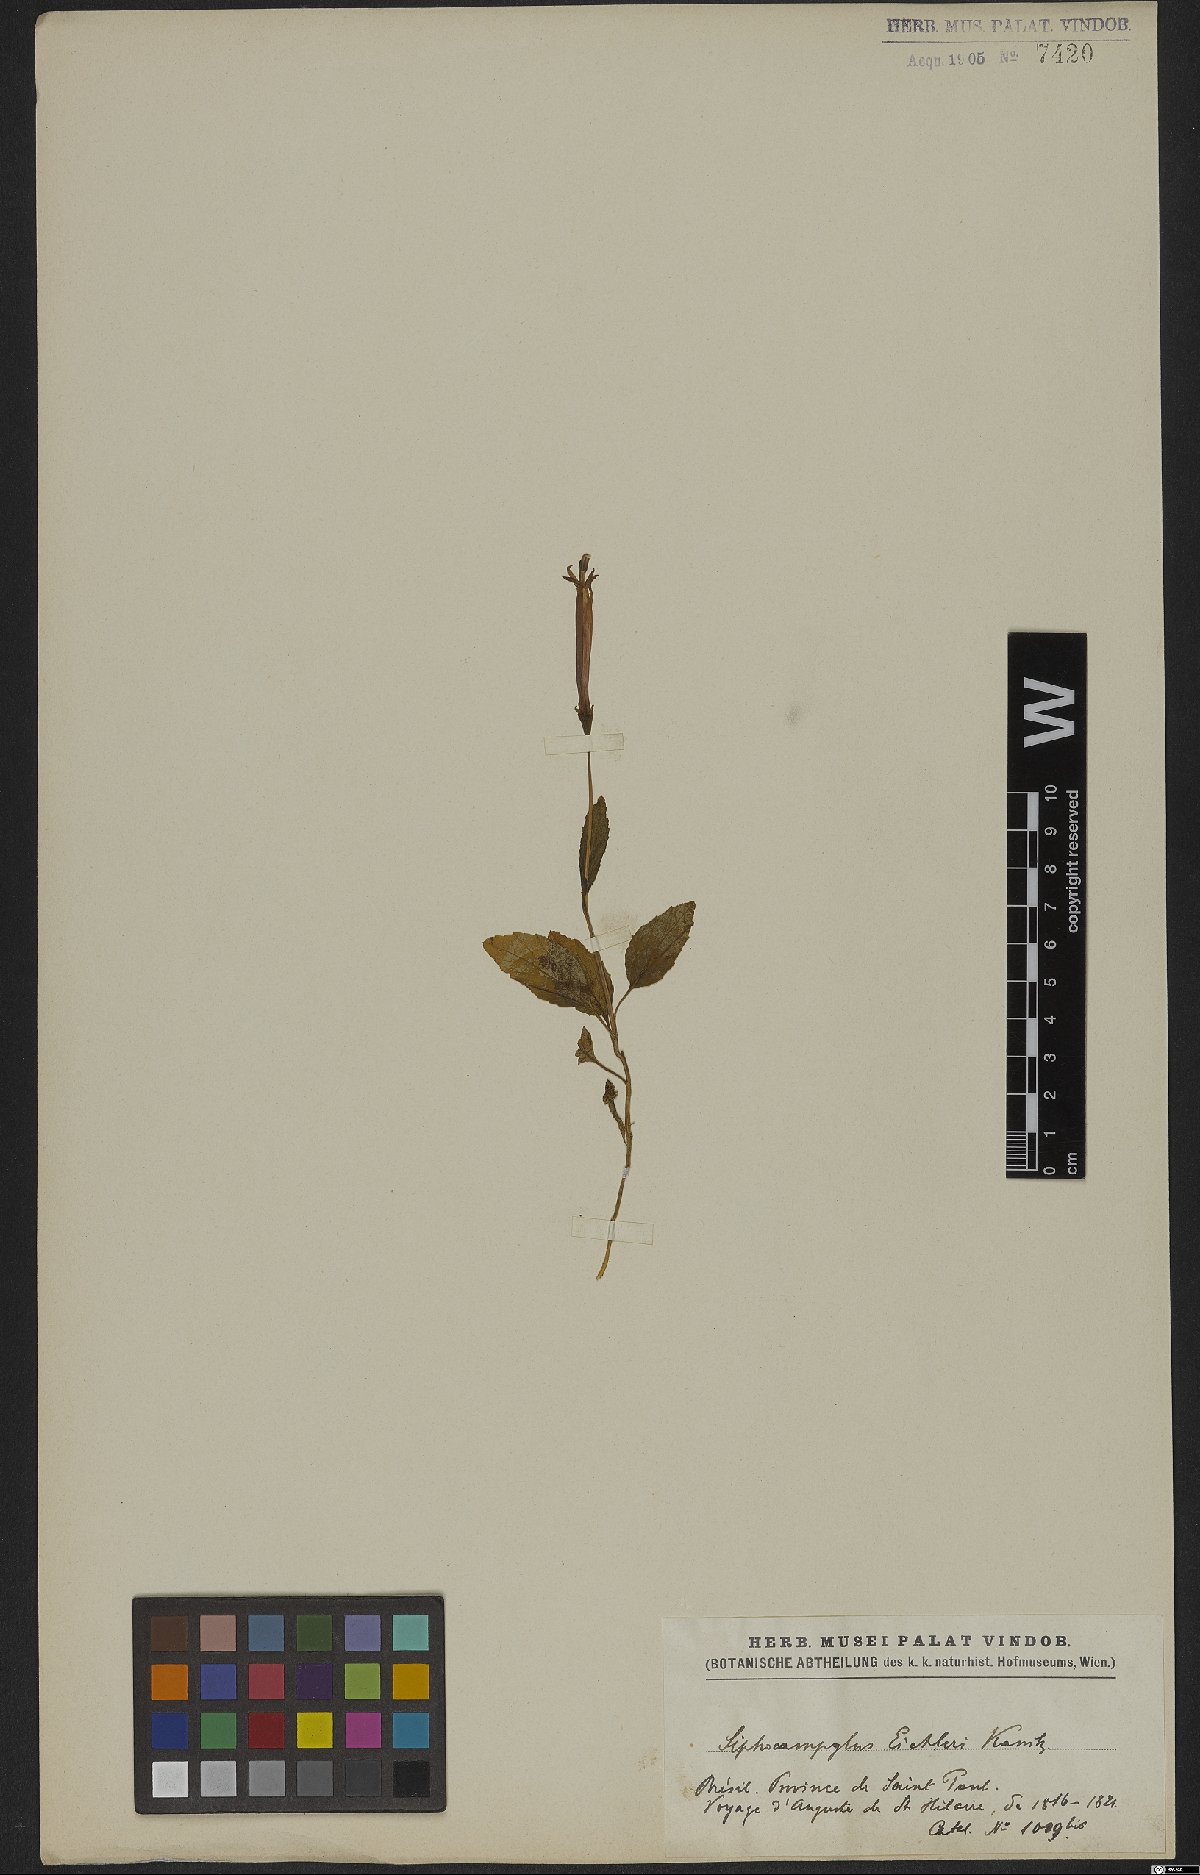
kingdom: Plantae
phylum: Tracheophyta
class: Magnoliopsida
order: Asterales
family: Campanulaceae
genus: Siphocampylus
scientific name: Siphocampylus eichleri
